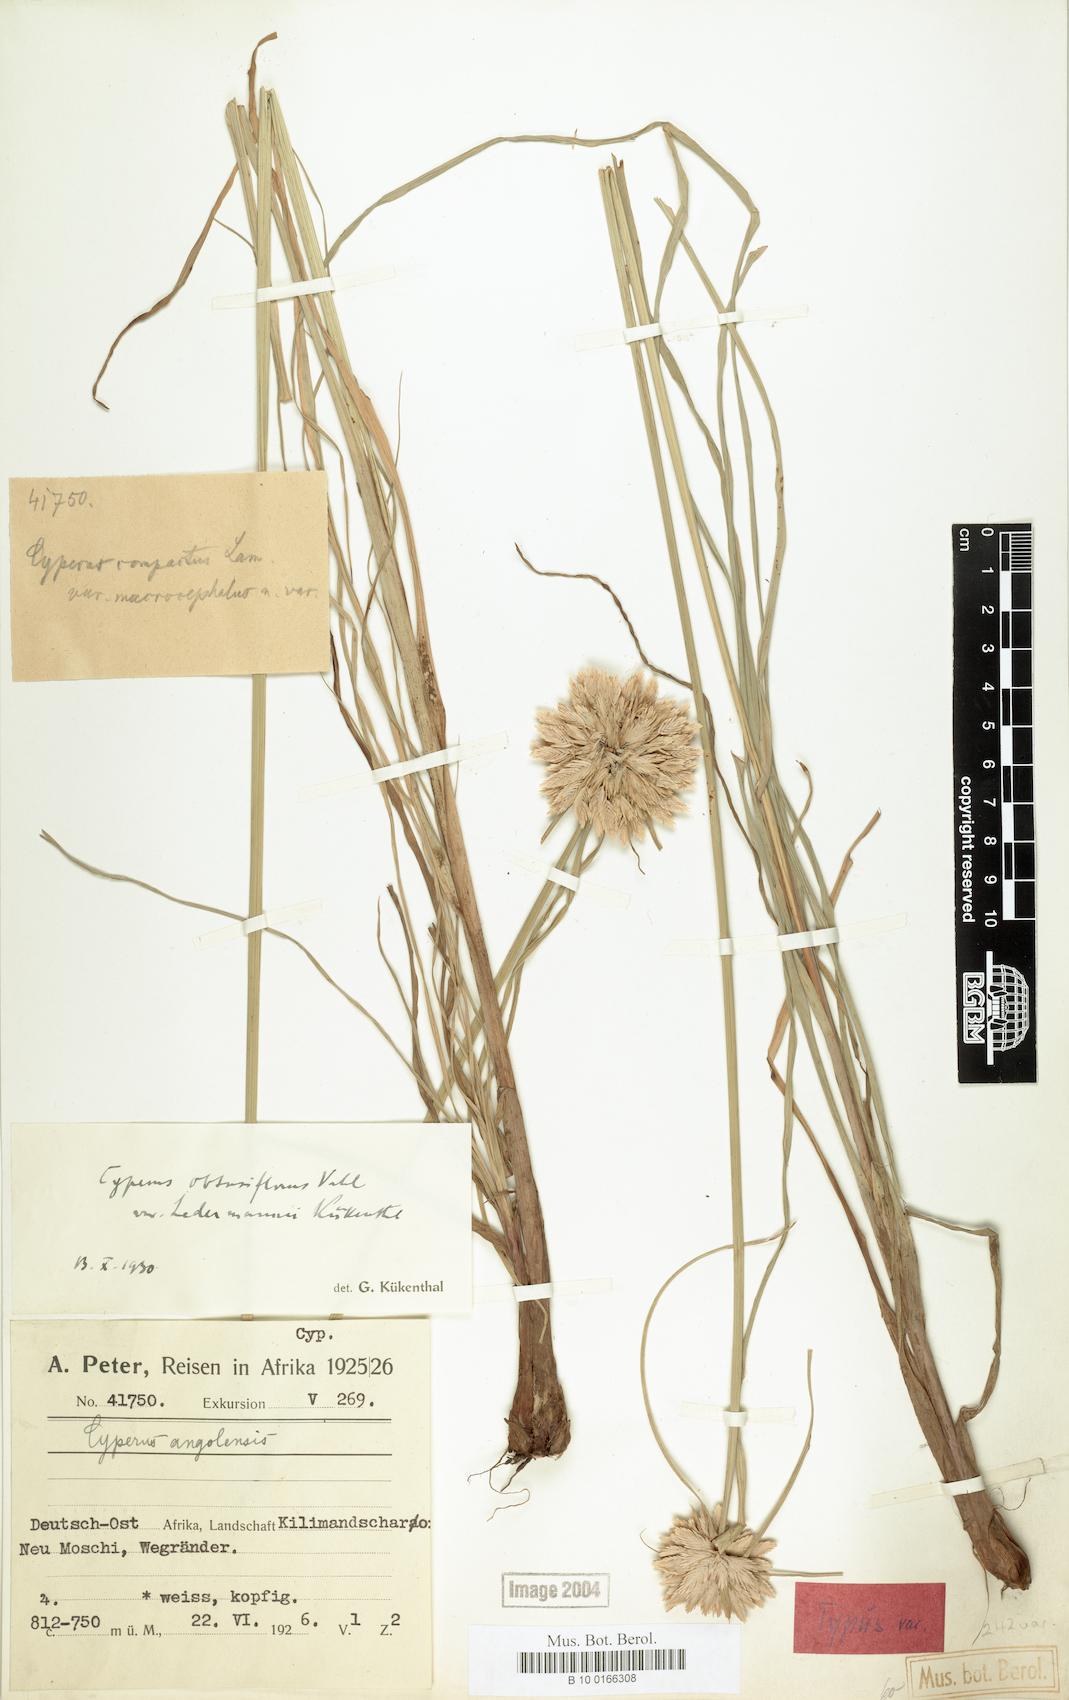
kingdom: Plantae
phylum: Tracheophyta
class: Liliopsida
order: Poales
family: Cyperaceae
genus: Cyperus
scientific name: Cyperus niveus
